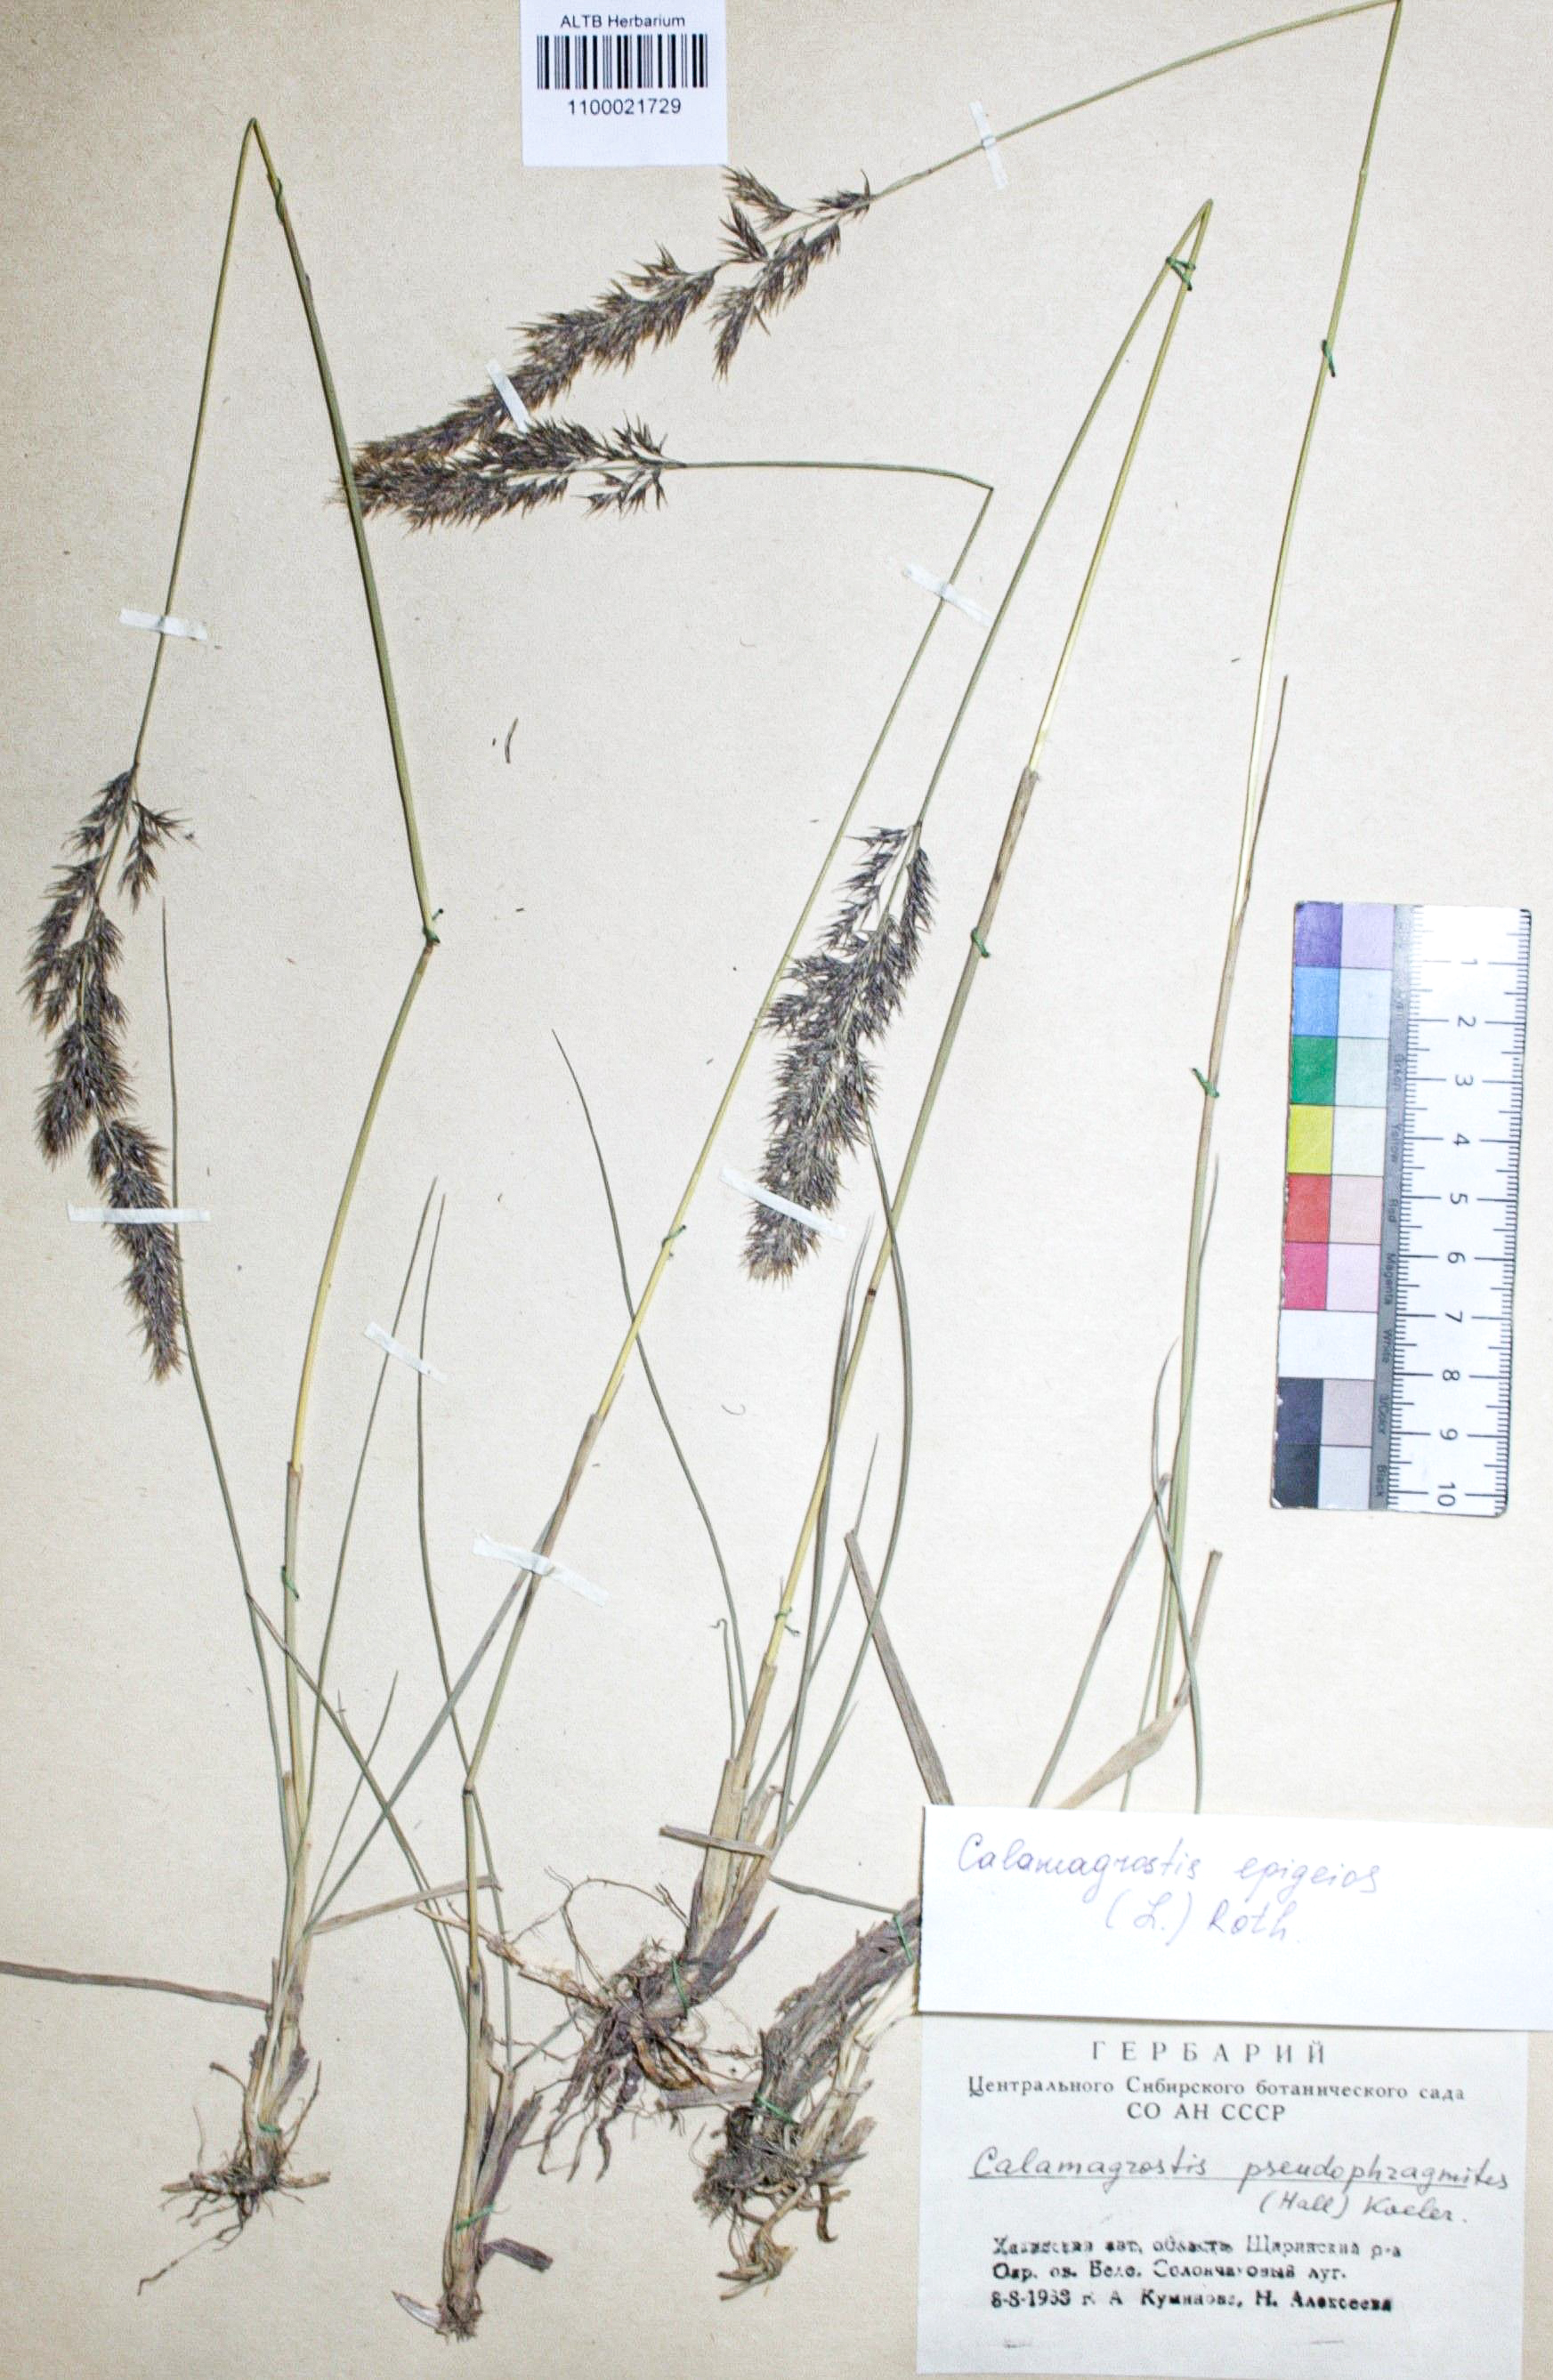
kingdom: Plantae
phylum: Tracheophyta
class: Liliopsida
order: Poales
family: Poaceae
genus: Calamagrostis
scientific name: Calamagrostis epigejos
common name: Wood small-reed
